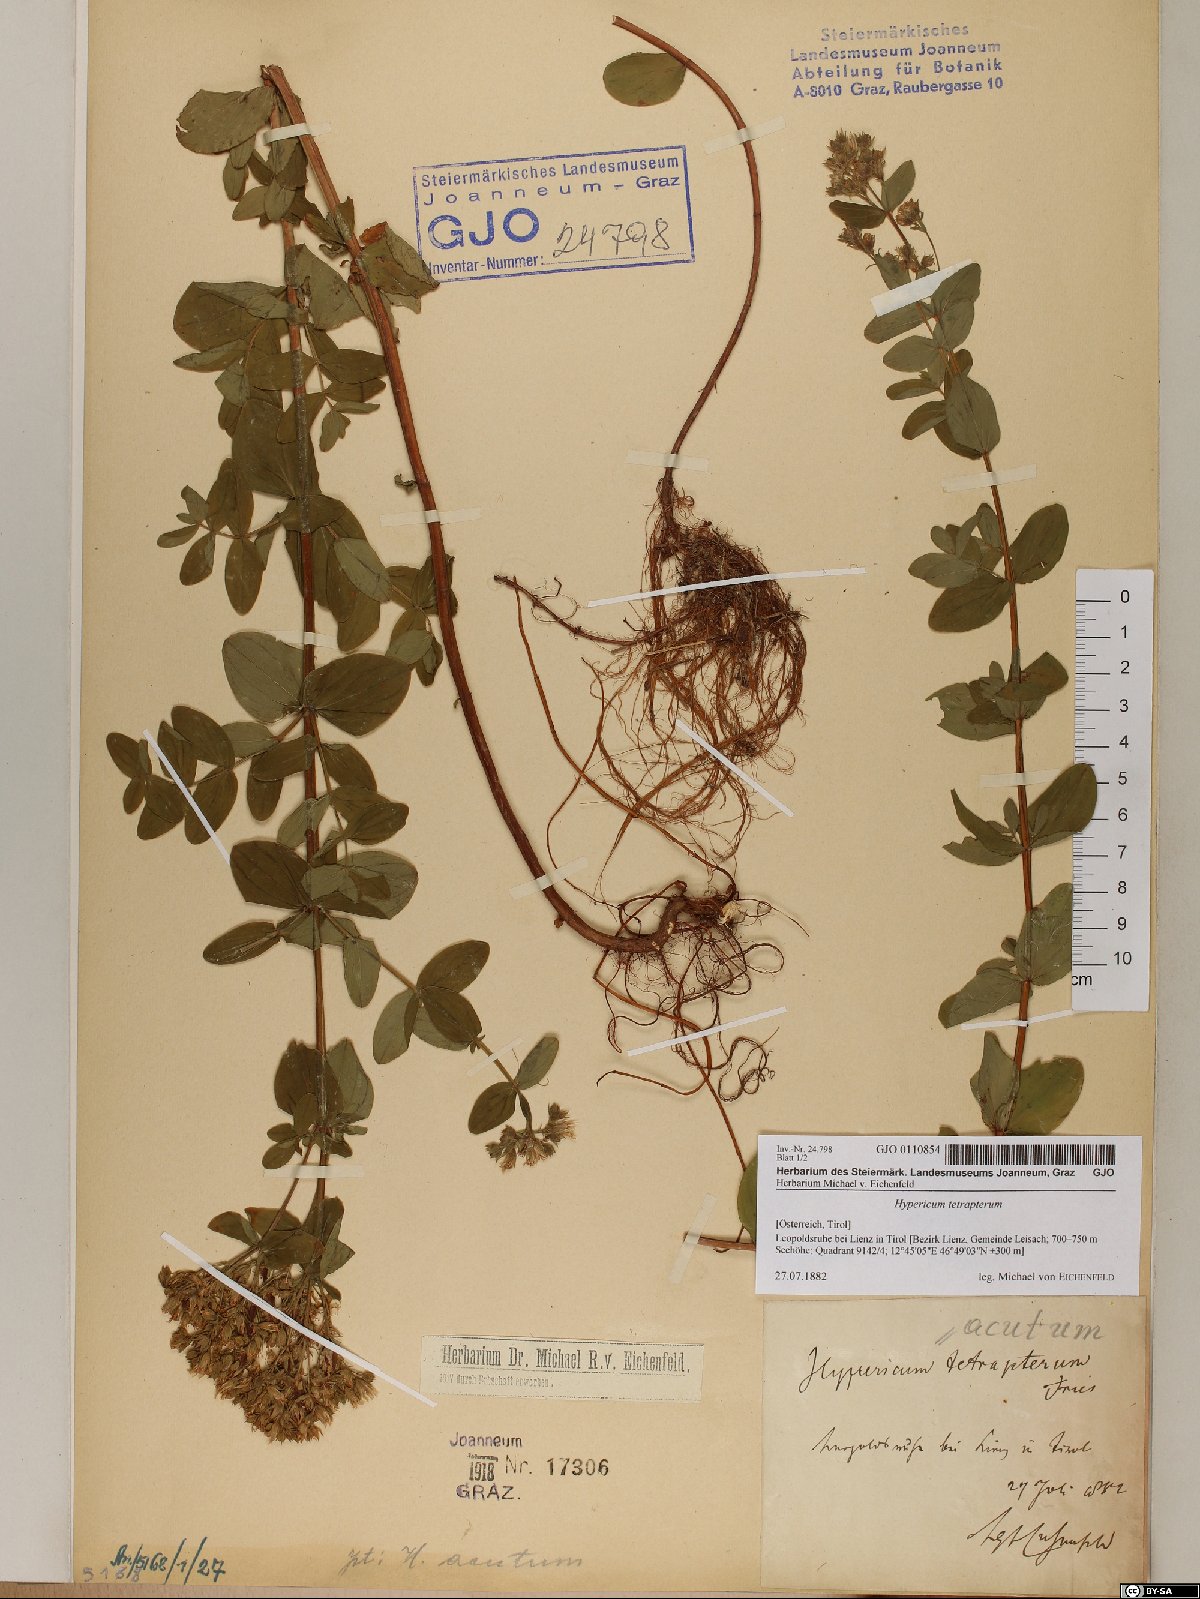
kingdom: Plantae
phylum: Tracheophyta
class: Magnoliopsida
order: Malpighiales
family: Hypericaceae
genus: Hypericum
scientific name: Hypericum tetrapterum
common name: Square-stalked st. john's-wort
